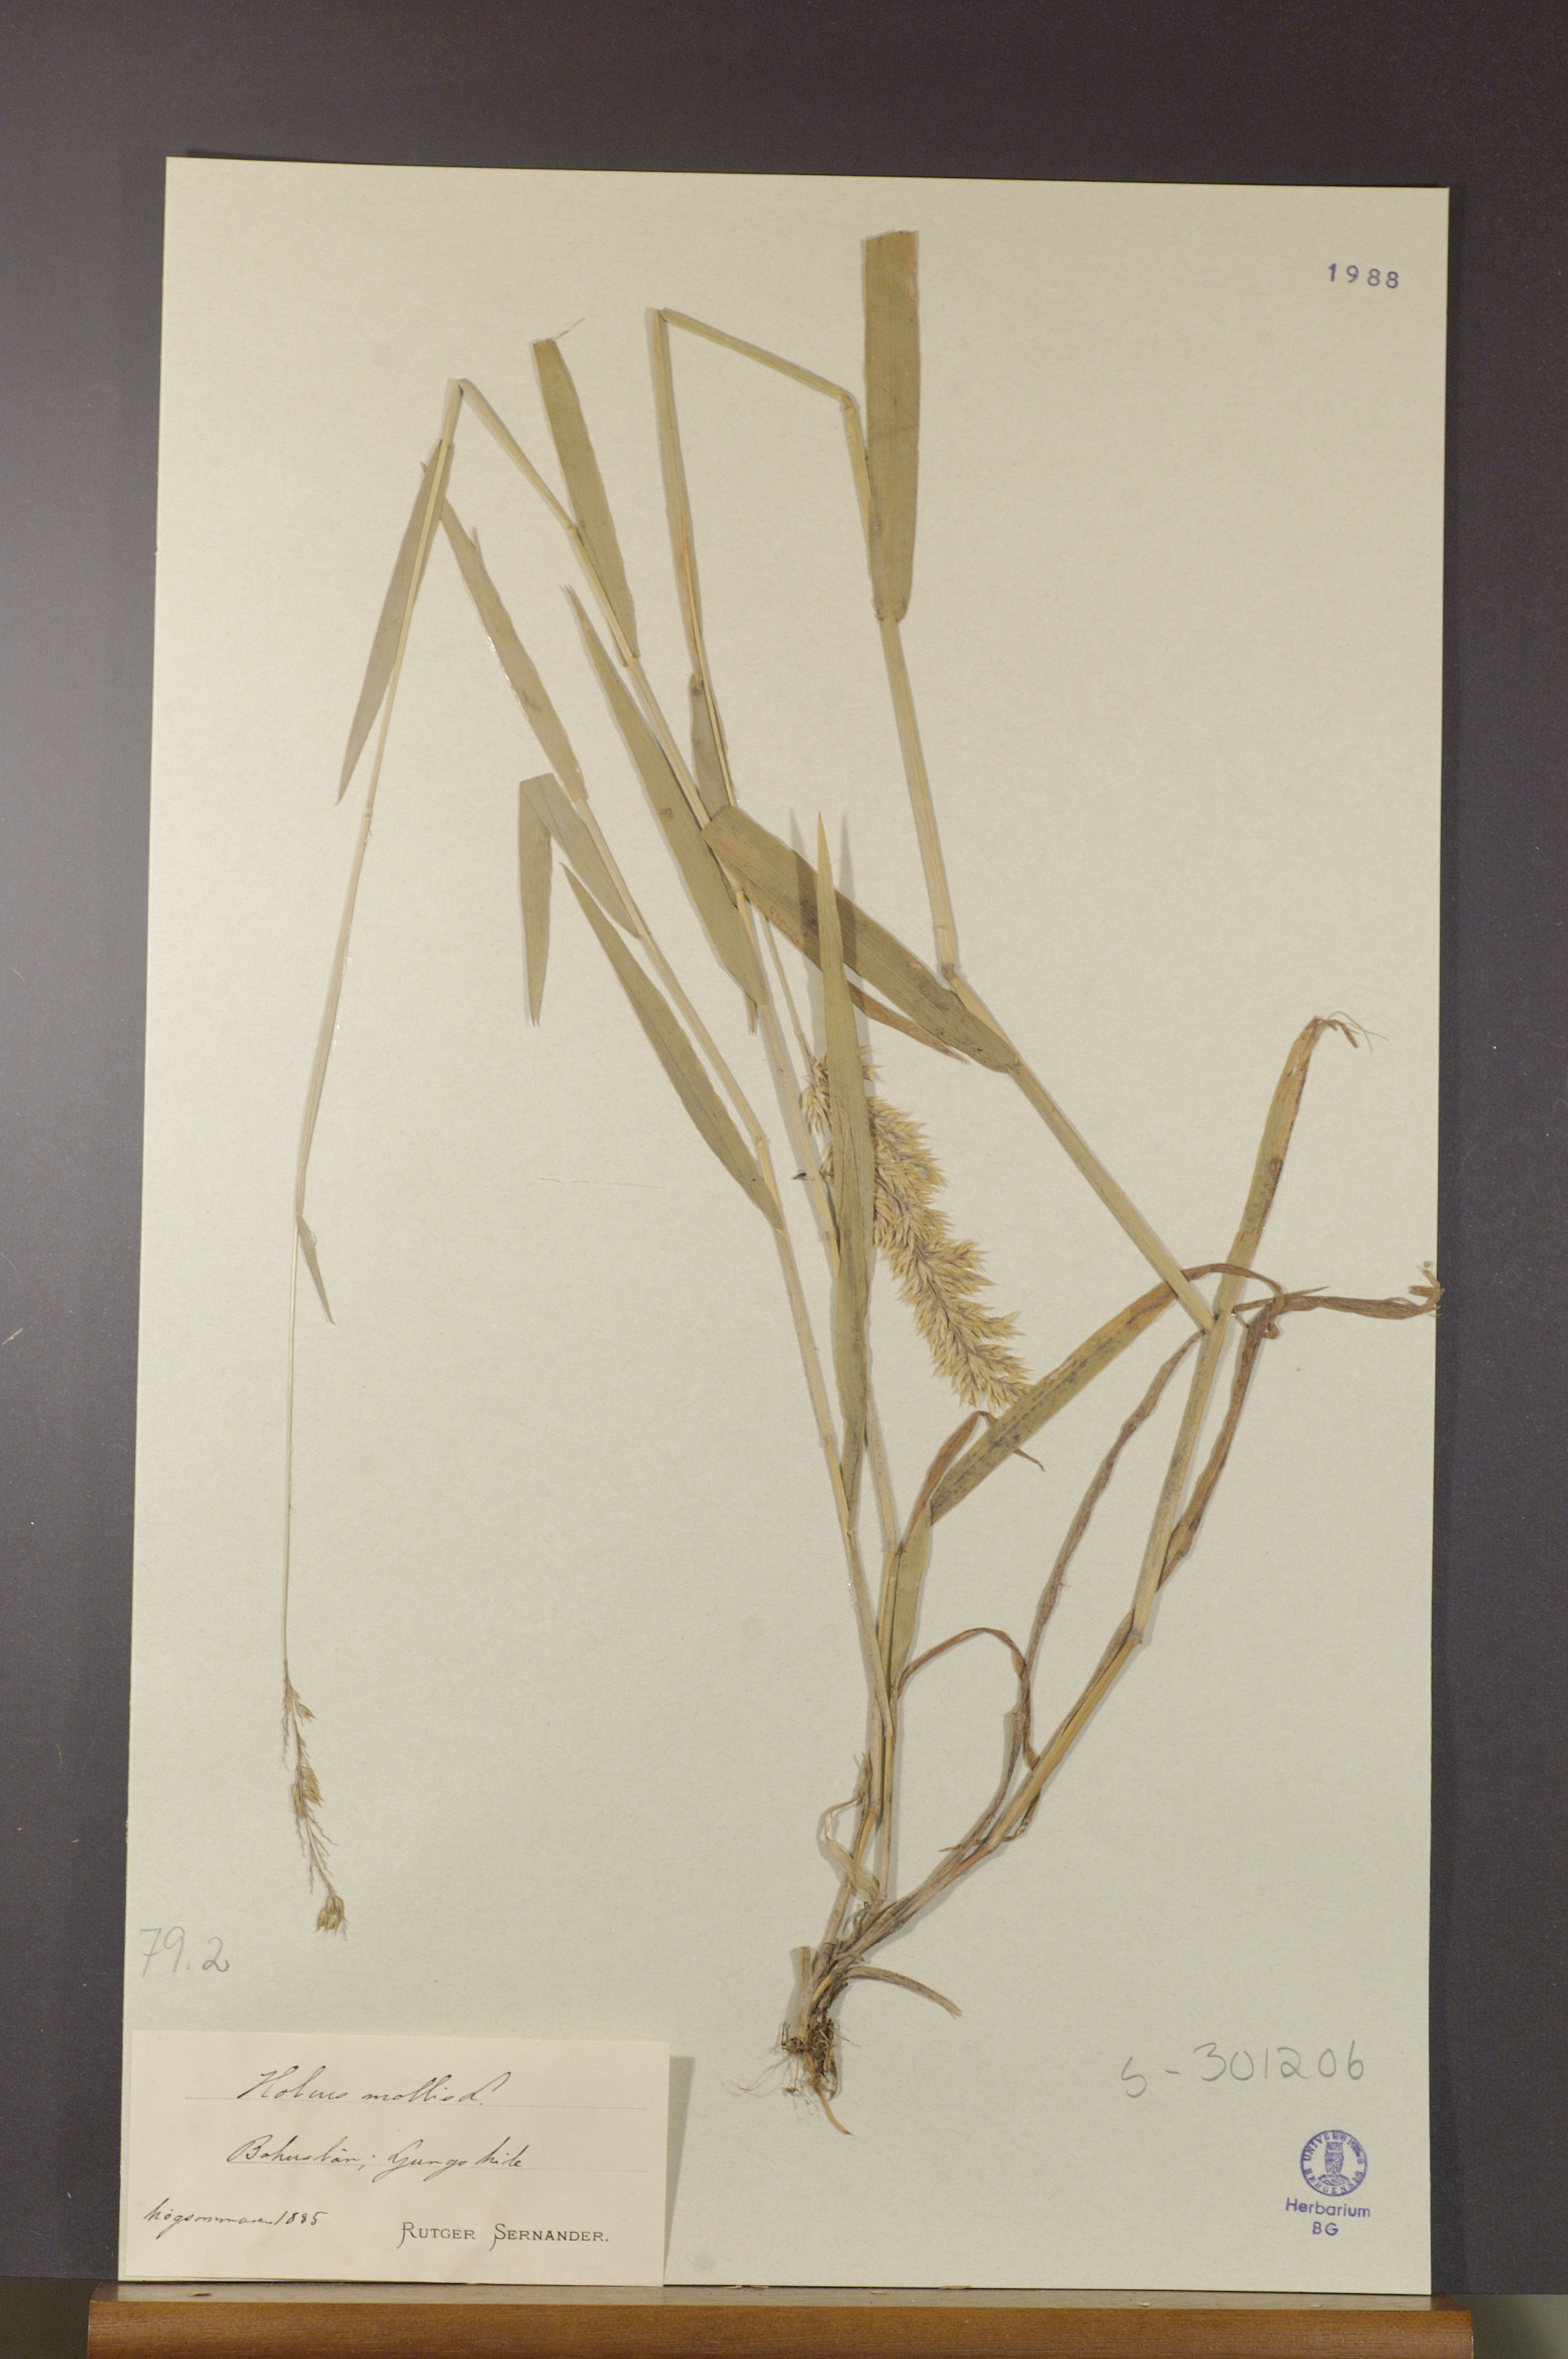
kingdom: Plantae
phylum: Tracheophyta
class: Liliopsida
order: Poales
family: Poaceae
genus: Holcus
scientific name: Holcus mollis
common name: Creeping velvetgrass
